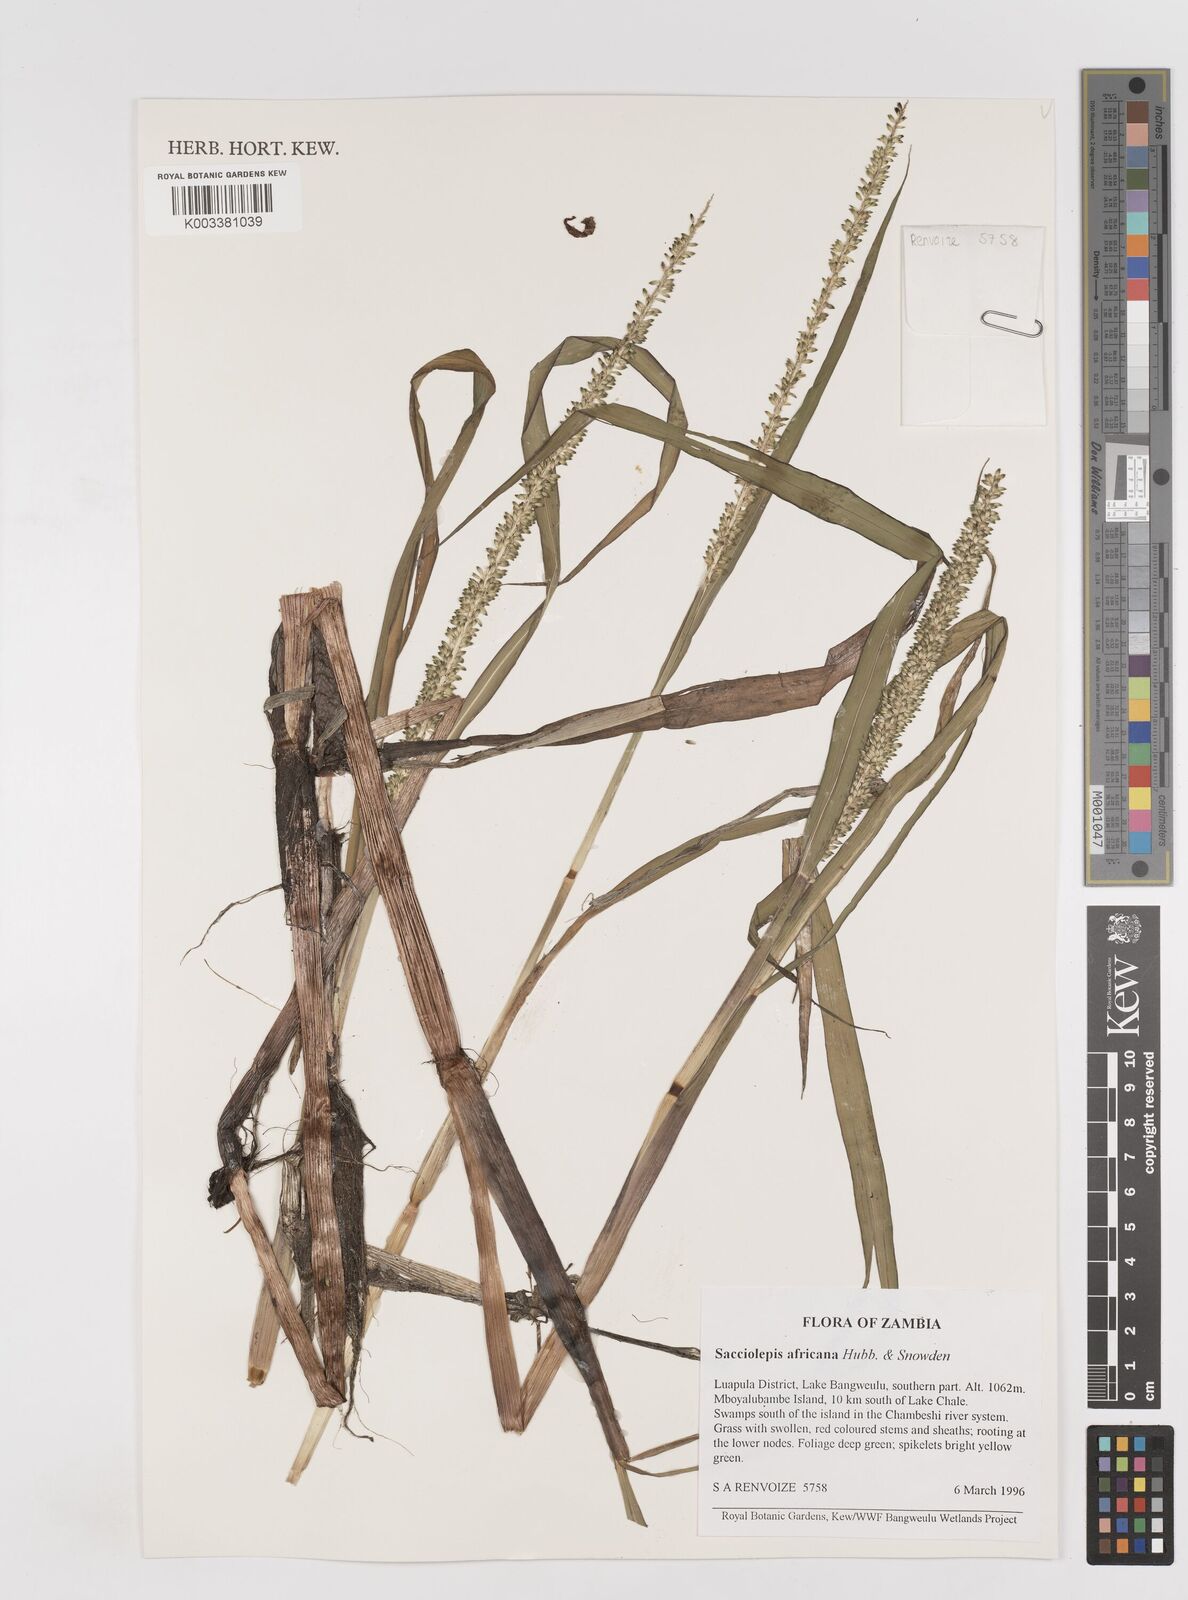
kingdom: Plantae
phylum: Tracheophyta
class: Liliopsida
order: Poales
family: Poaceae
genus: Sacciolepis
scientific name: Sacciolepis africana
